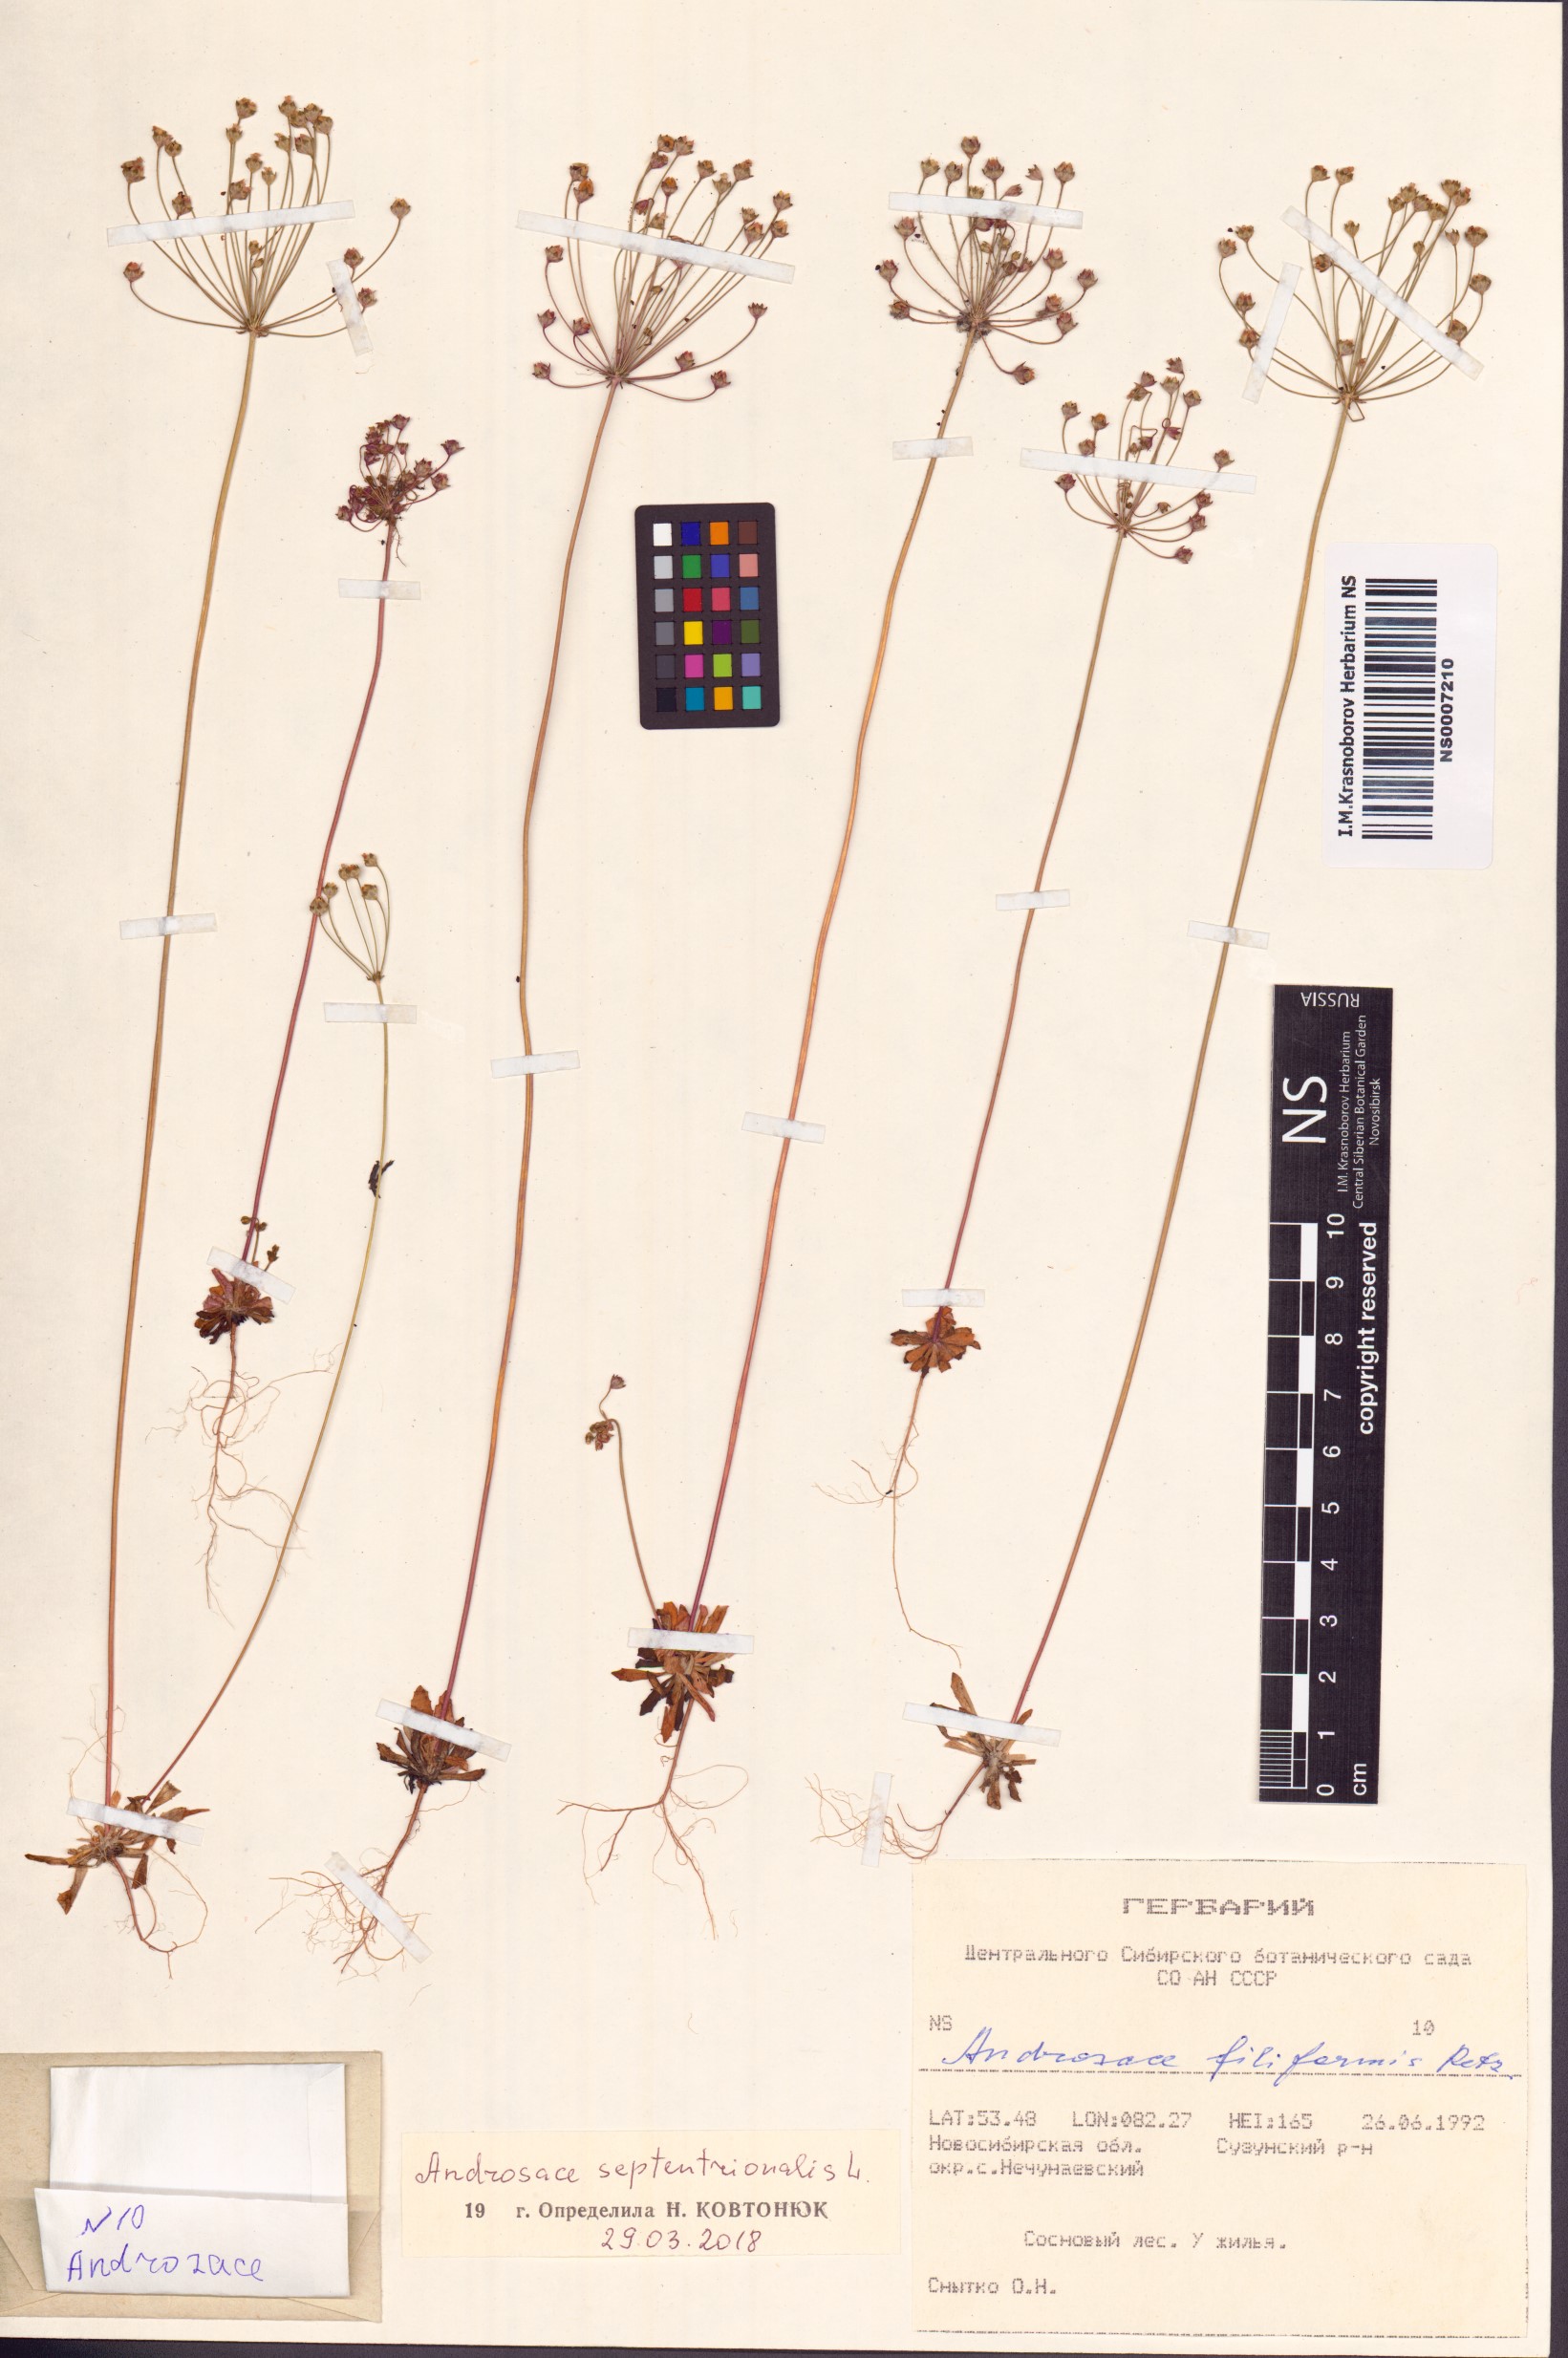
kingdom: Plantae
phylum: Tracheophyta
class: Magnoliopsida
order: Ericales
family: Primulaceae
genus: Androsace
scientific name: Androsace septentrionalis
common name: Hairy northern fairy-candelabra
